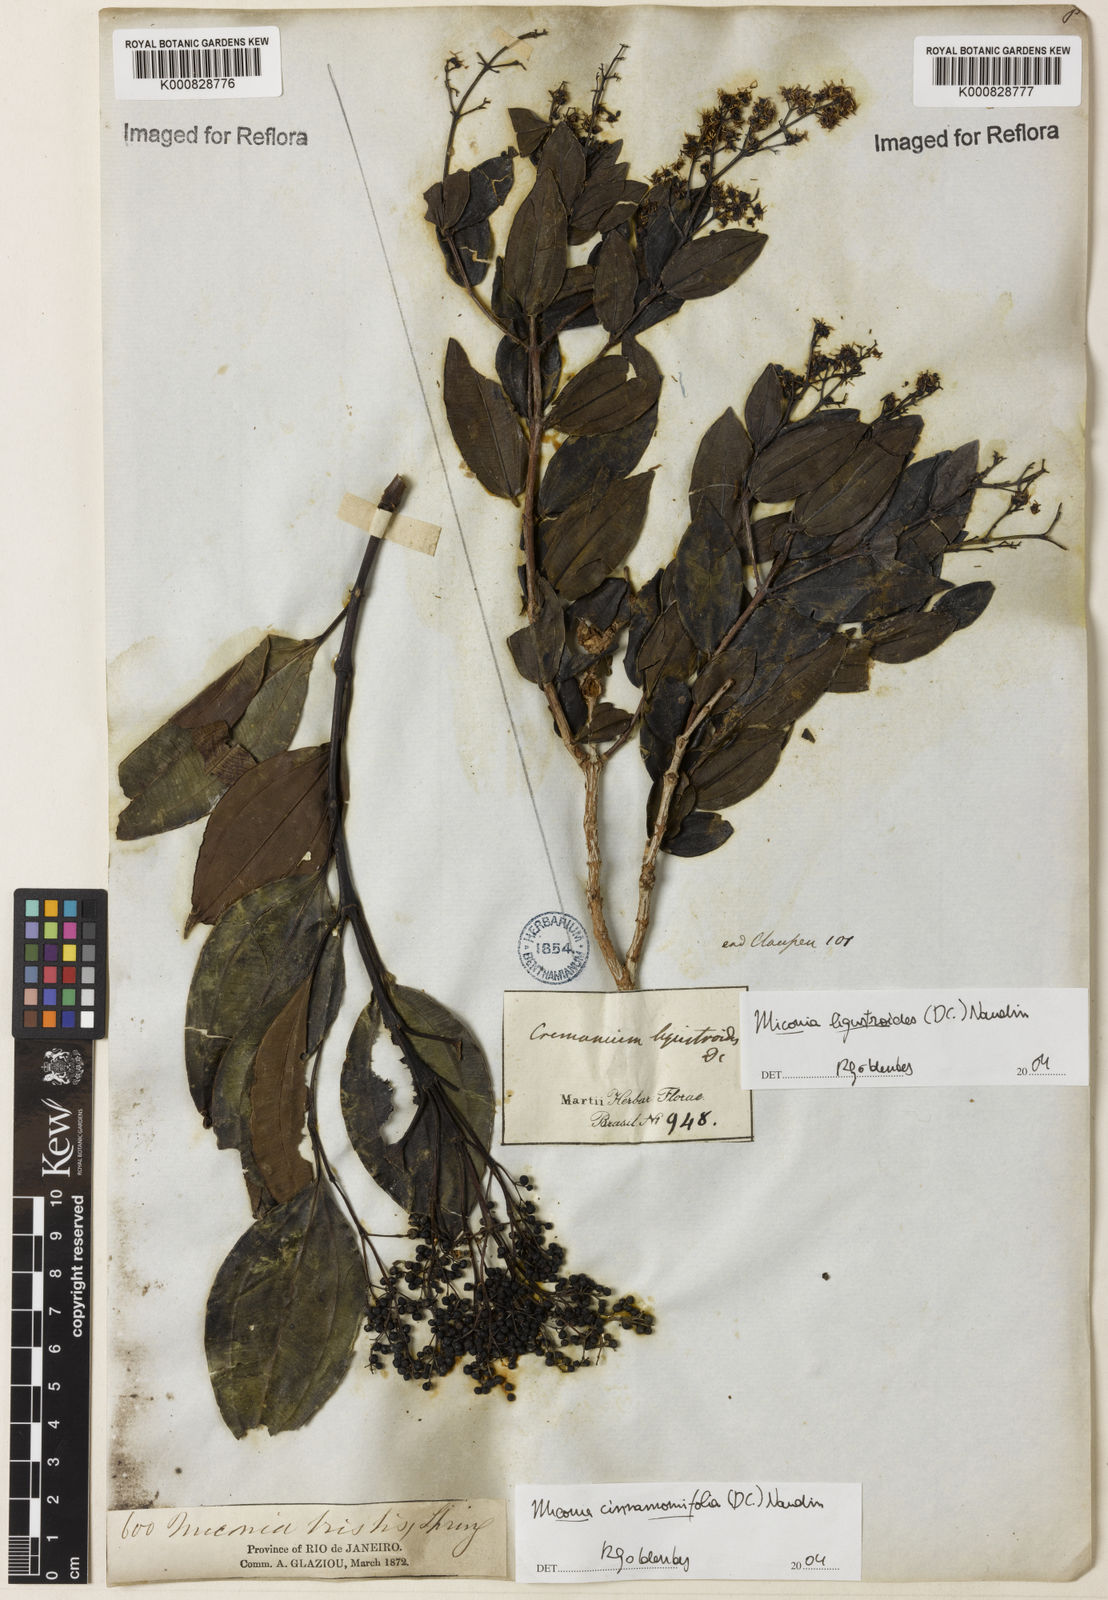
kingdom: Plantae
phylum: Tracheophyta
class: Magnoliopsida
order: Myrtales
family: Melastomataceae
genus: Miconia
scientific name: Miconia ligustroides
